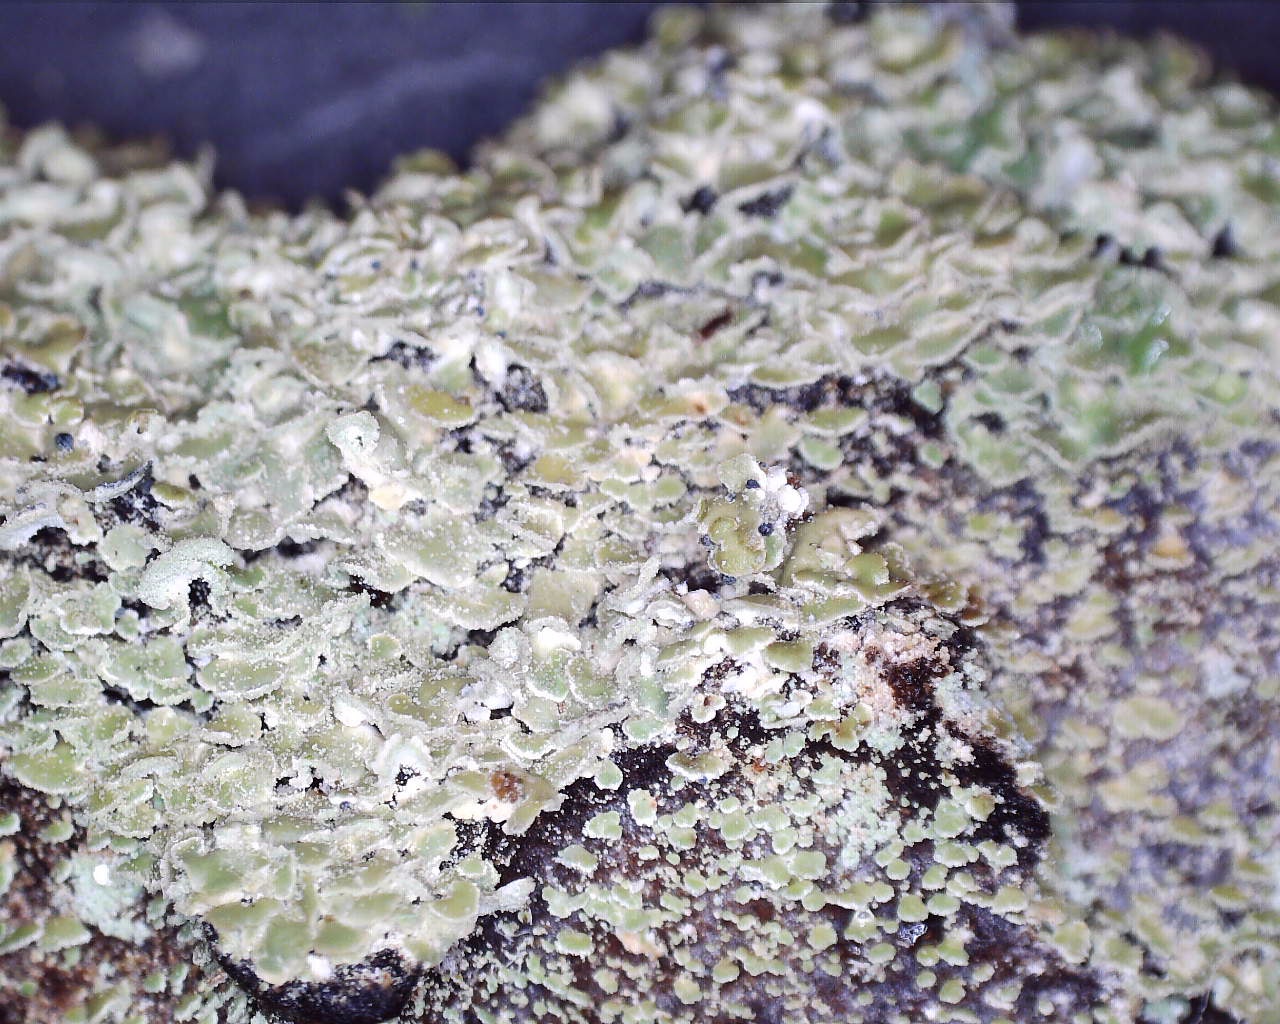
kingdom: Fungi
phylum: Ascomycota
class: Lecanoromycetes
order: Umbilicariales
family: Ophioparmaceae
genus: Hypocenomyce
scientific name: Hypocenomyce scalaris
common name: småskællet muslinglav
